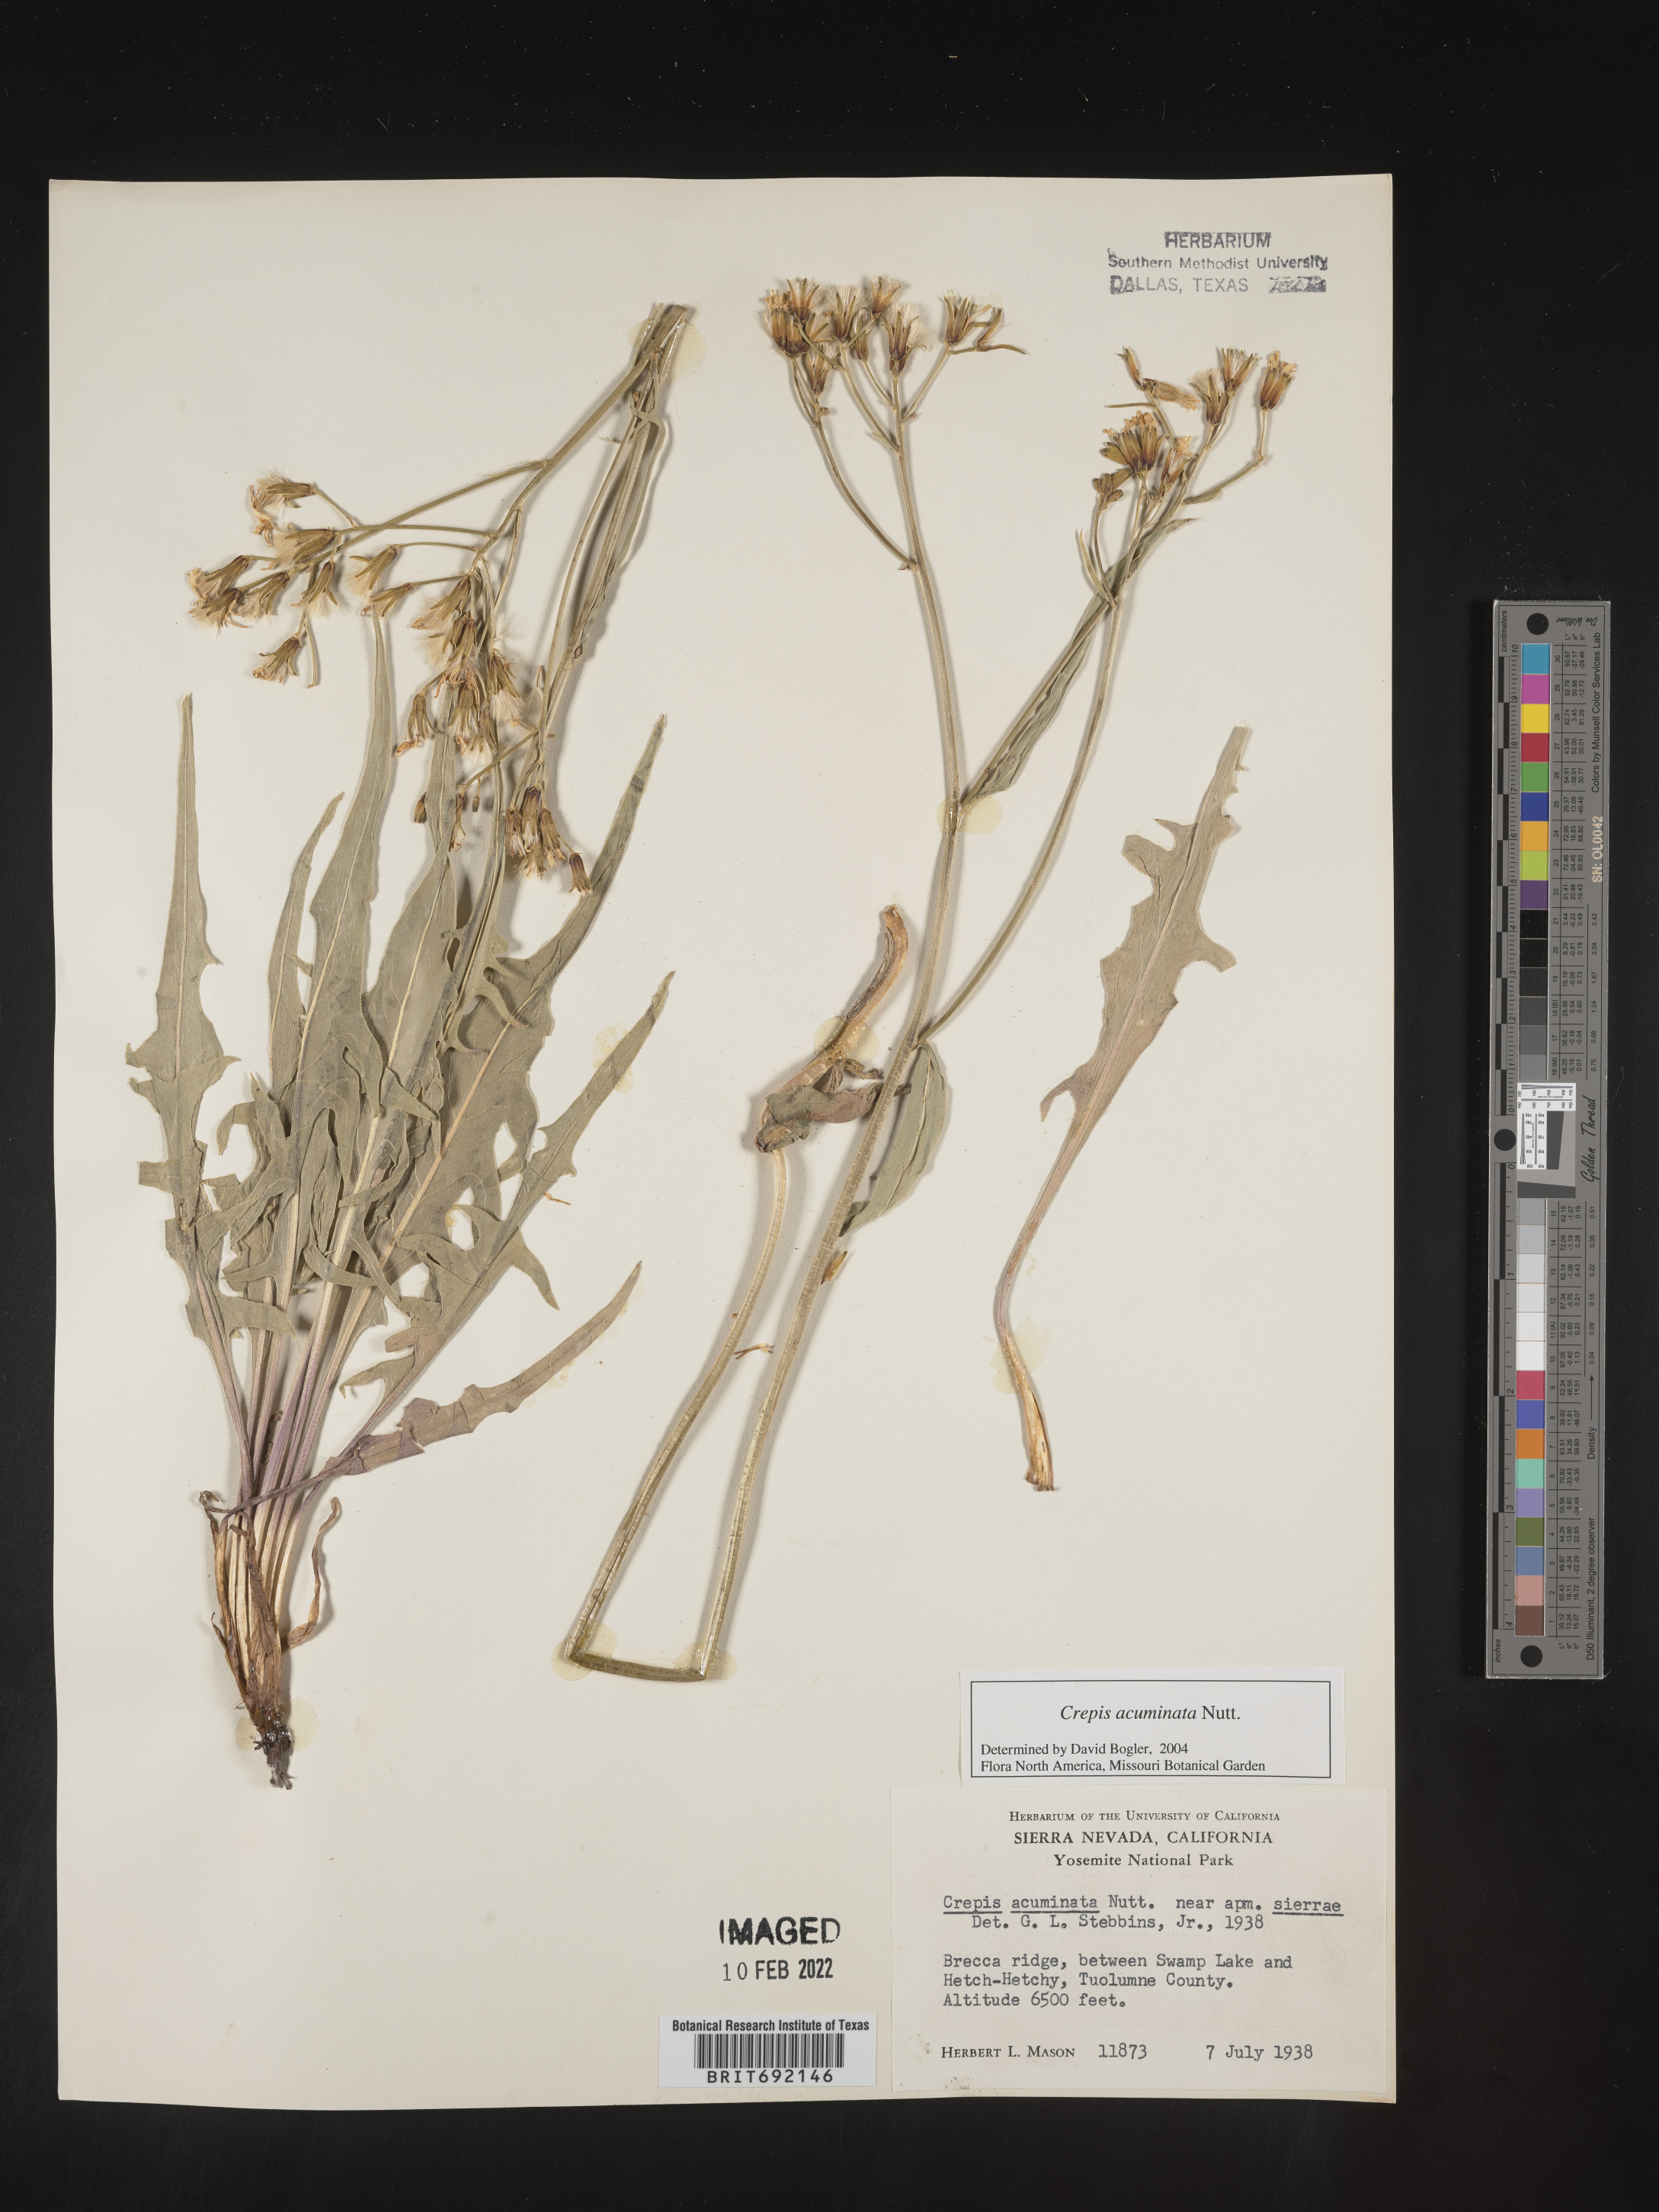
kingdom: Plantae
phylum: Tracheophyta
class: Magnoliopsida
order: Asterales
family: Asteraceae
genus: Crepis
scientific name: Crepis acuminata
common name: Longleaf hawk's-beard
